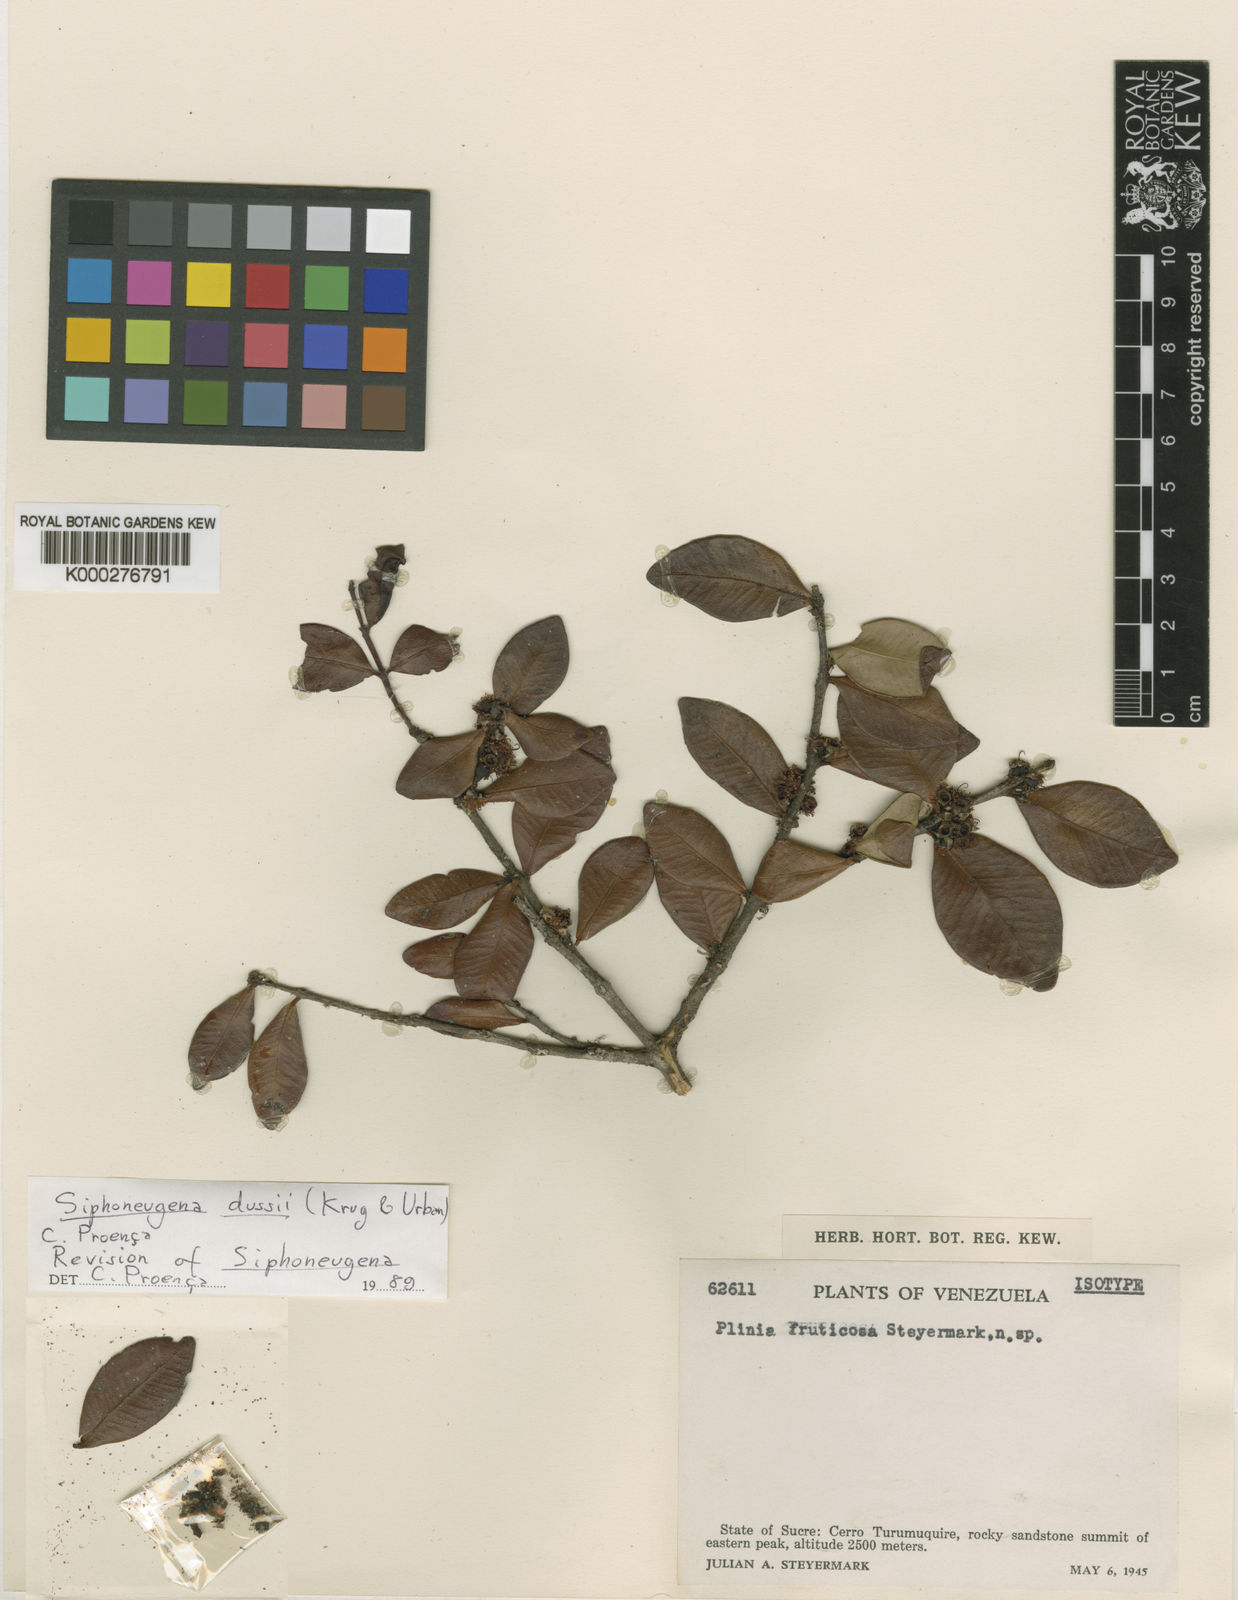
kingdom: Plantae
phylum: Tracheophyta
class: Magnoliopsida
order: Myrtales
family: Myrtaceae
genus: Siphoneugena
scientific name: Siphoneugena
